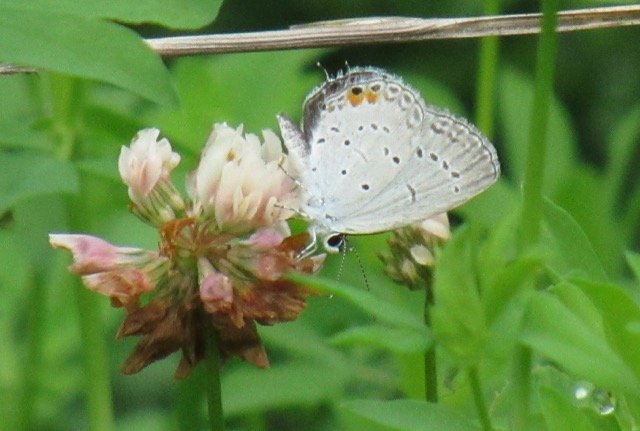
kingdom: Animalia
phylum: Arthropoda
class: Insecta
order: Lepidoptera
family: Lycaenidae
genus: Elkalyce
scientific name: Elkalyce comyntas
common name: Eastern Tailed-Blue
